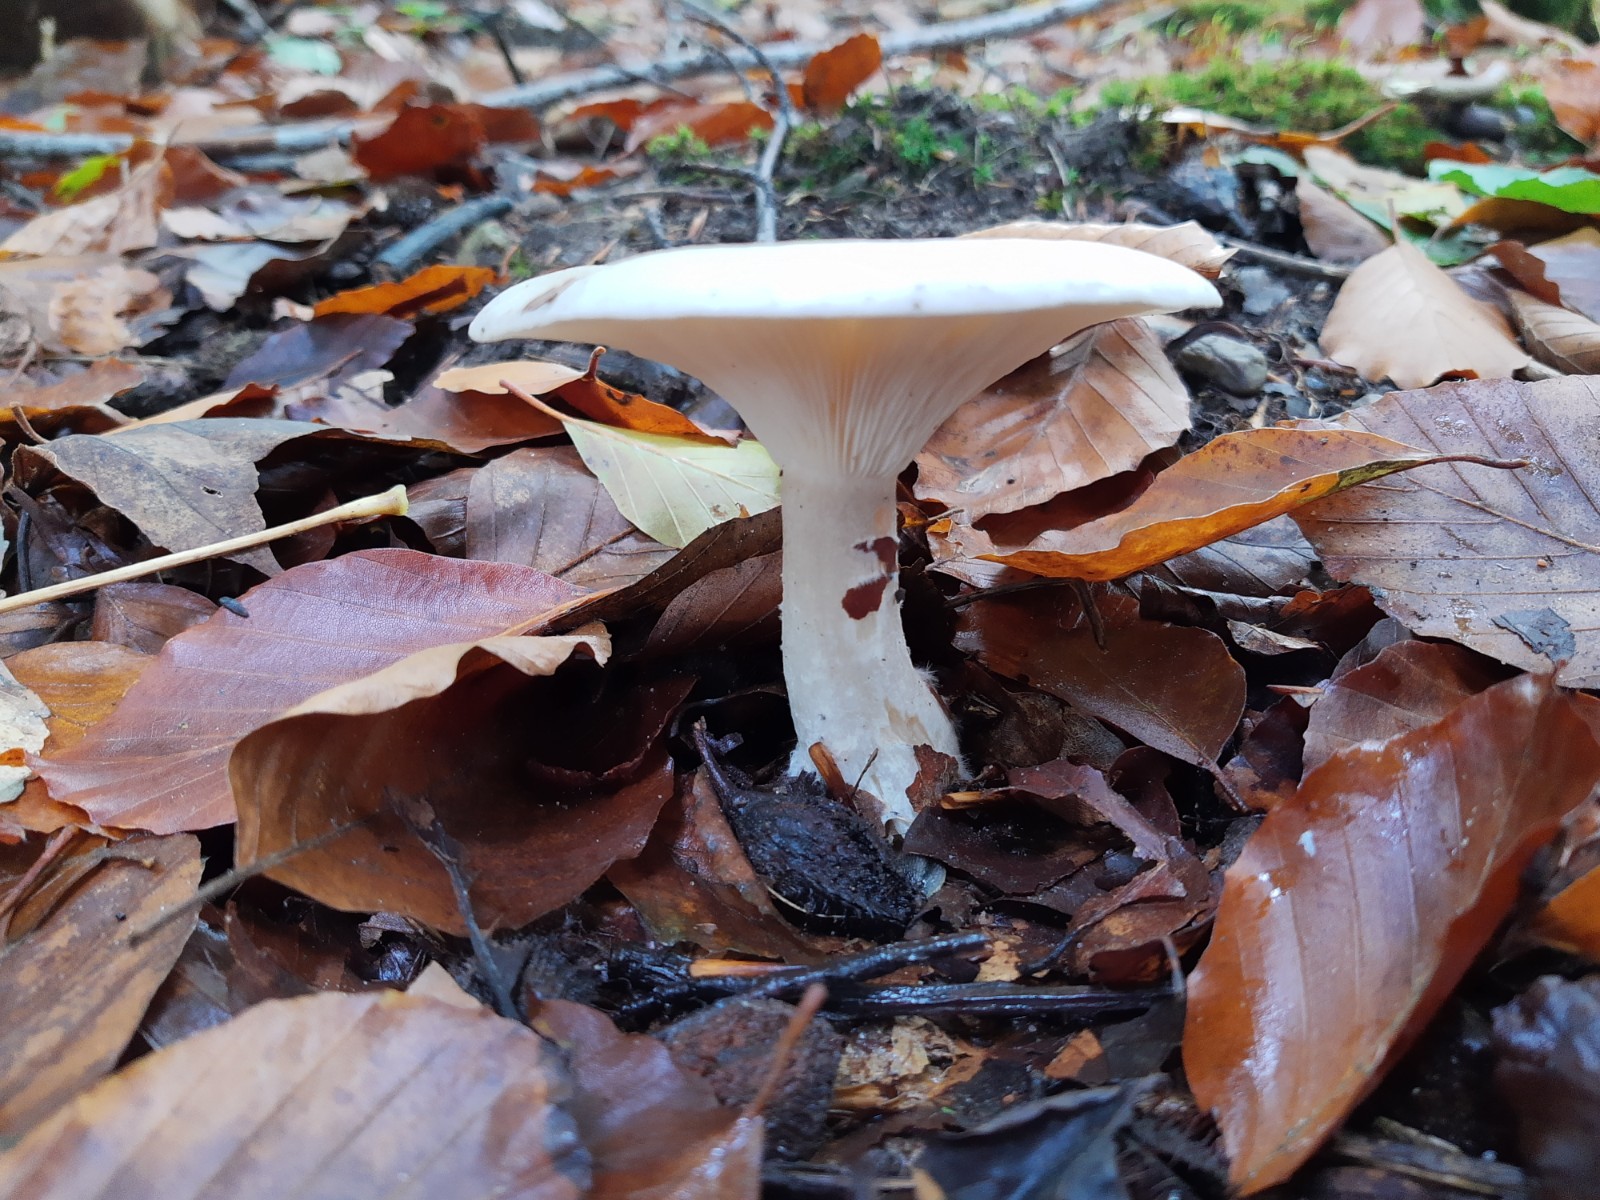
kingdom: Fungi
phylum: Basidiomycota
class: Agaricomycetes
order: Agaricales
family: Tricholomataceae
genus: Clitocybe
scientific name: Clitocybe nebularis
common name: tåge-tragthat
